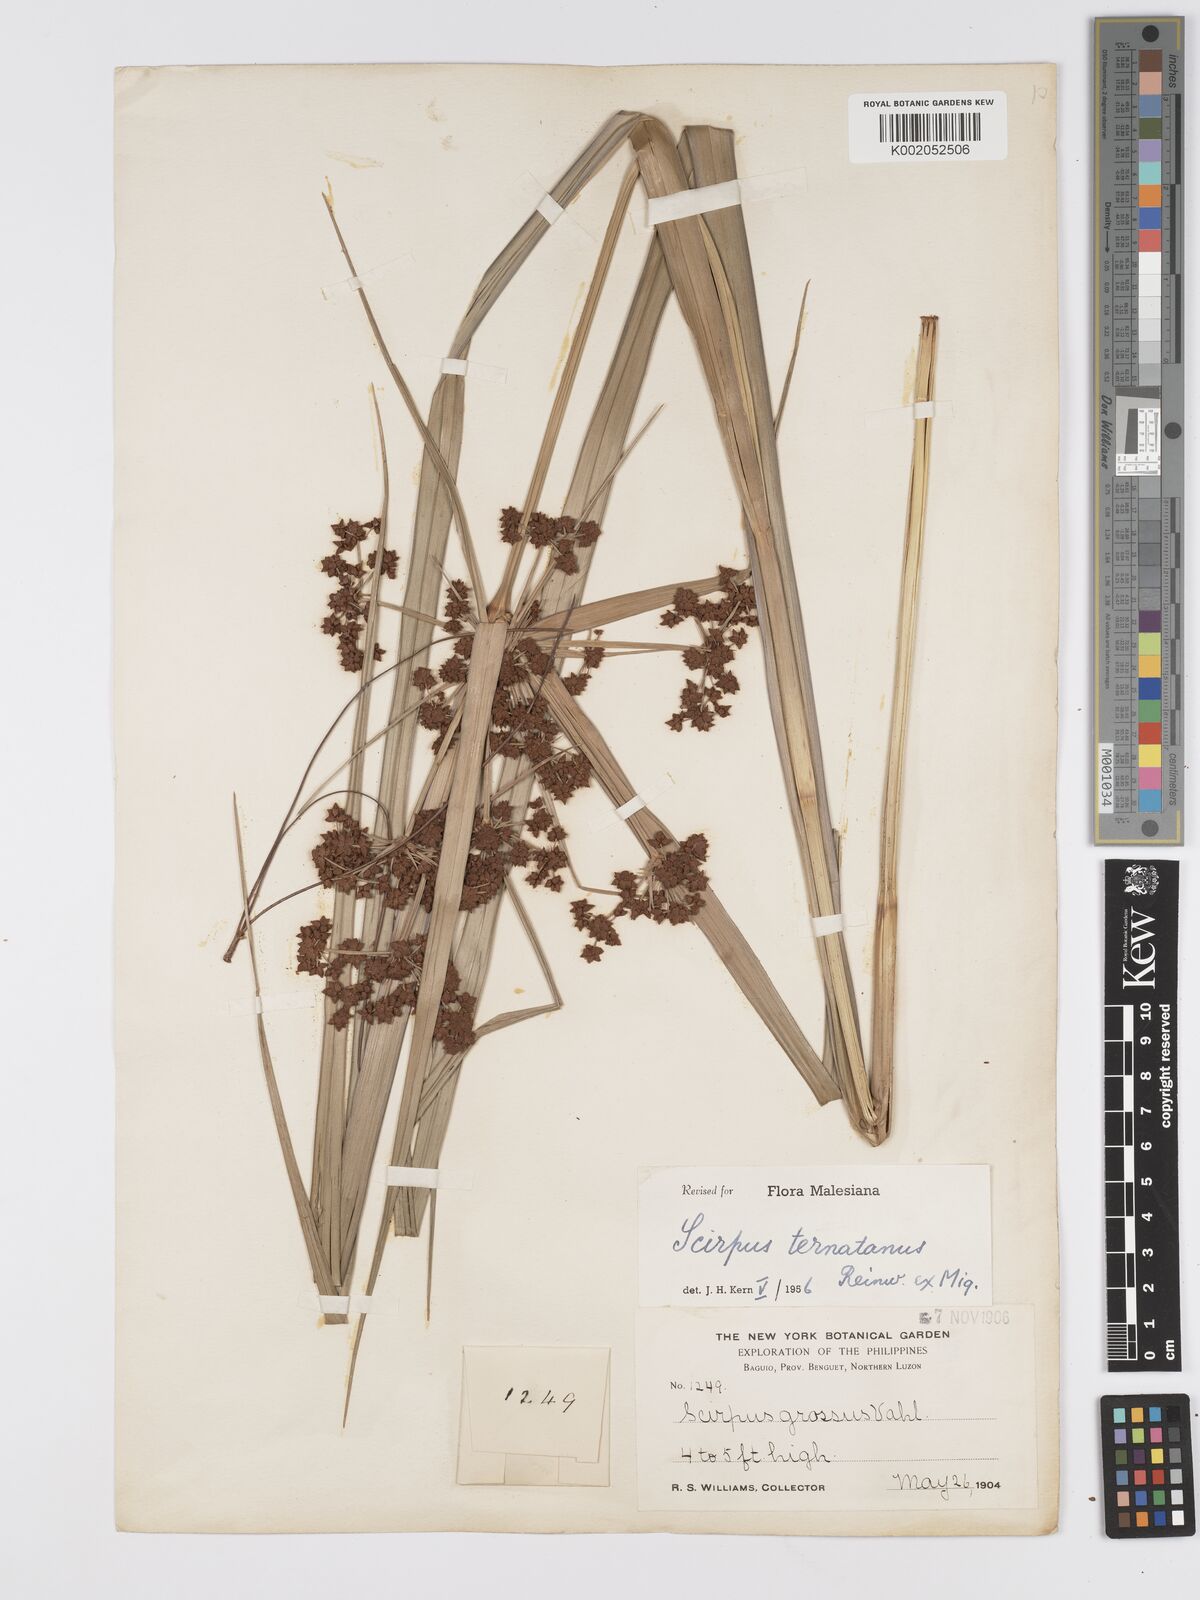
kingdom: Plantae
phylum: Tracheophyta
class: Liliopsida
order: Poales
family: Cyperaceae
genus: Scirpus
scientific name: Scirpus ternatanus
